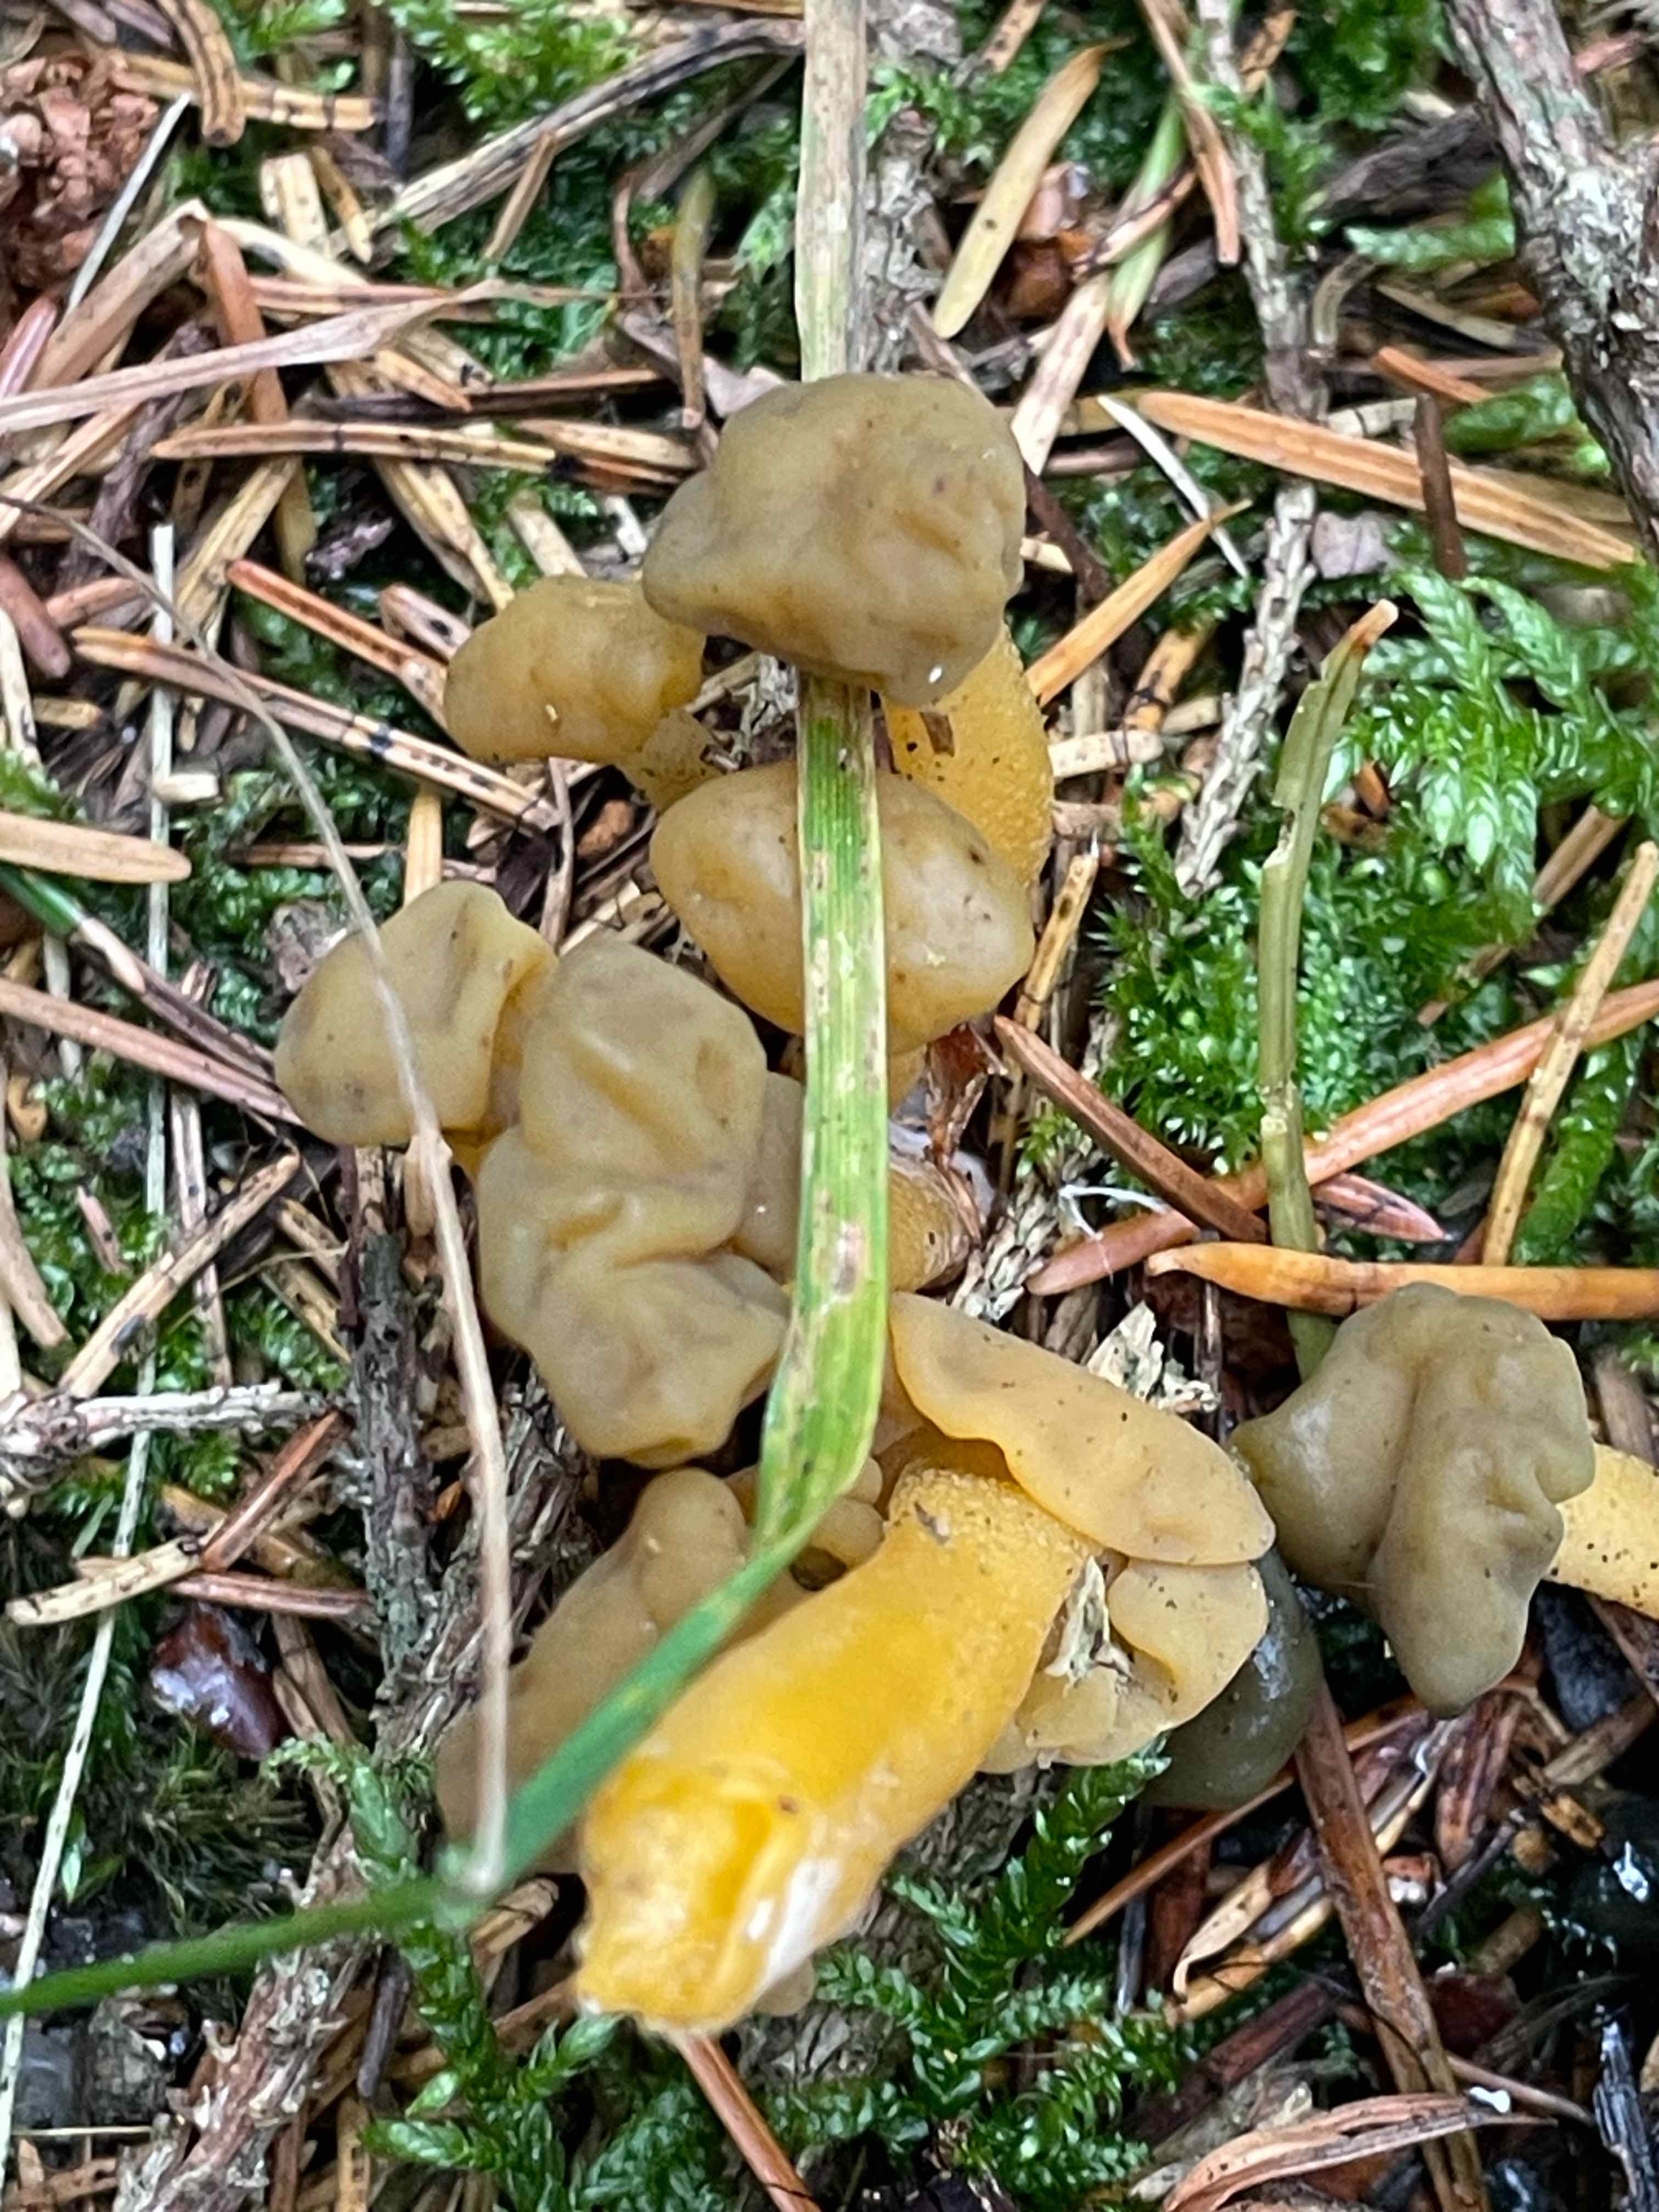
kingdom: Fungi
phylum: Ascomycota
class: Leotiomycetes
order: Leotiales
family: Leotiaceae
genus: Leotia
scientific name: Leotia lubrica
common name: ravsvamp
